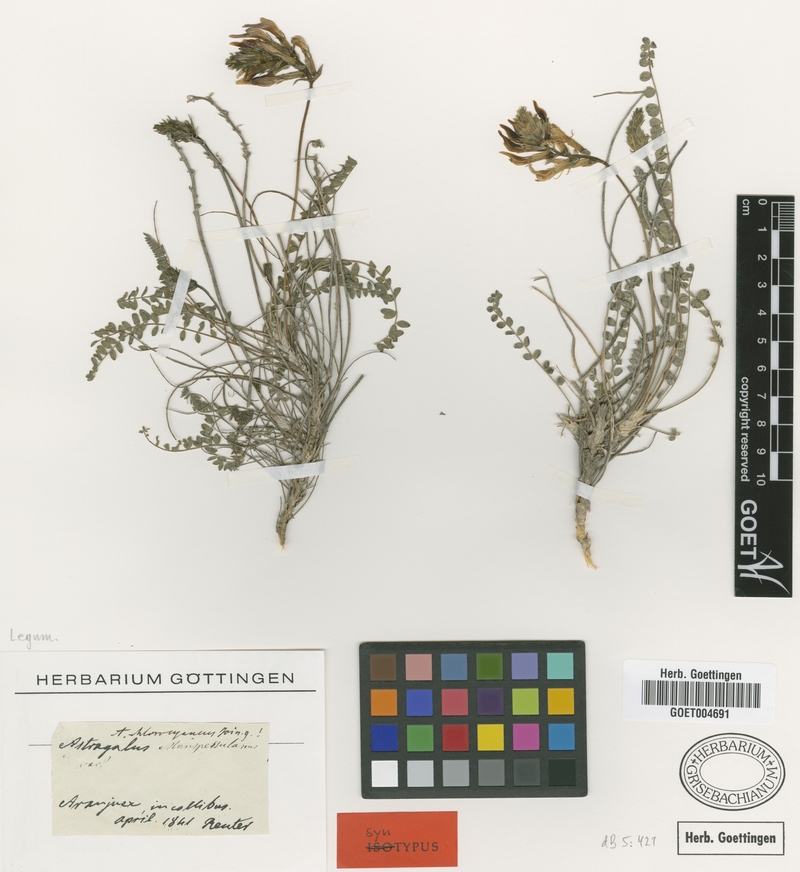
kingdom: Plantae
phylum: Tracheophyta
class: Magnoliopsida
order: Fabales
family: Fabaceae
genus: Astragalus
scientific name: Astragalus monspessulanus
